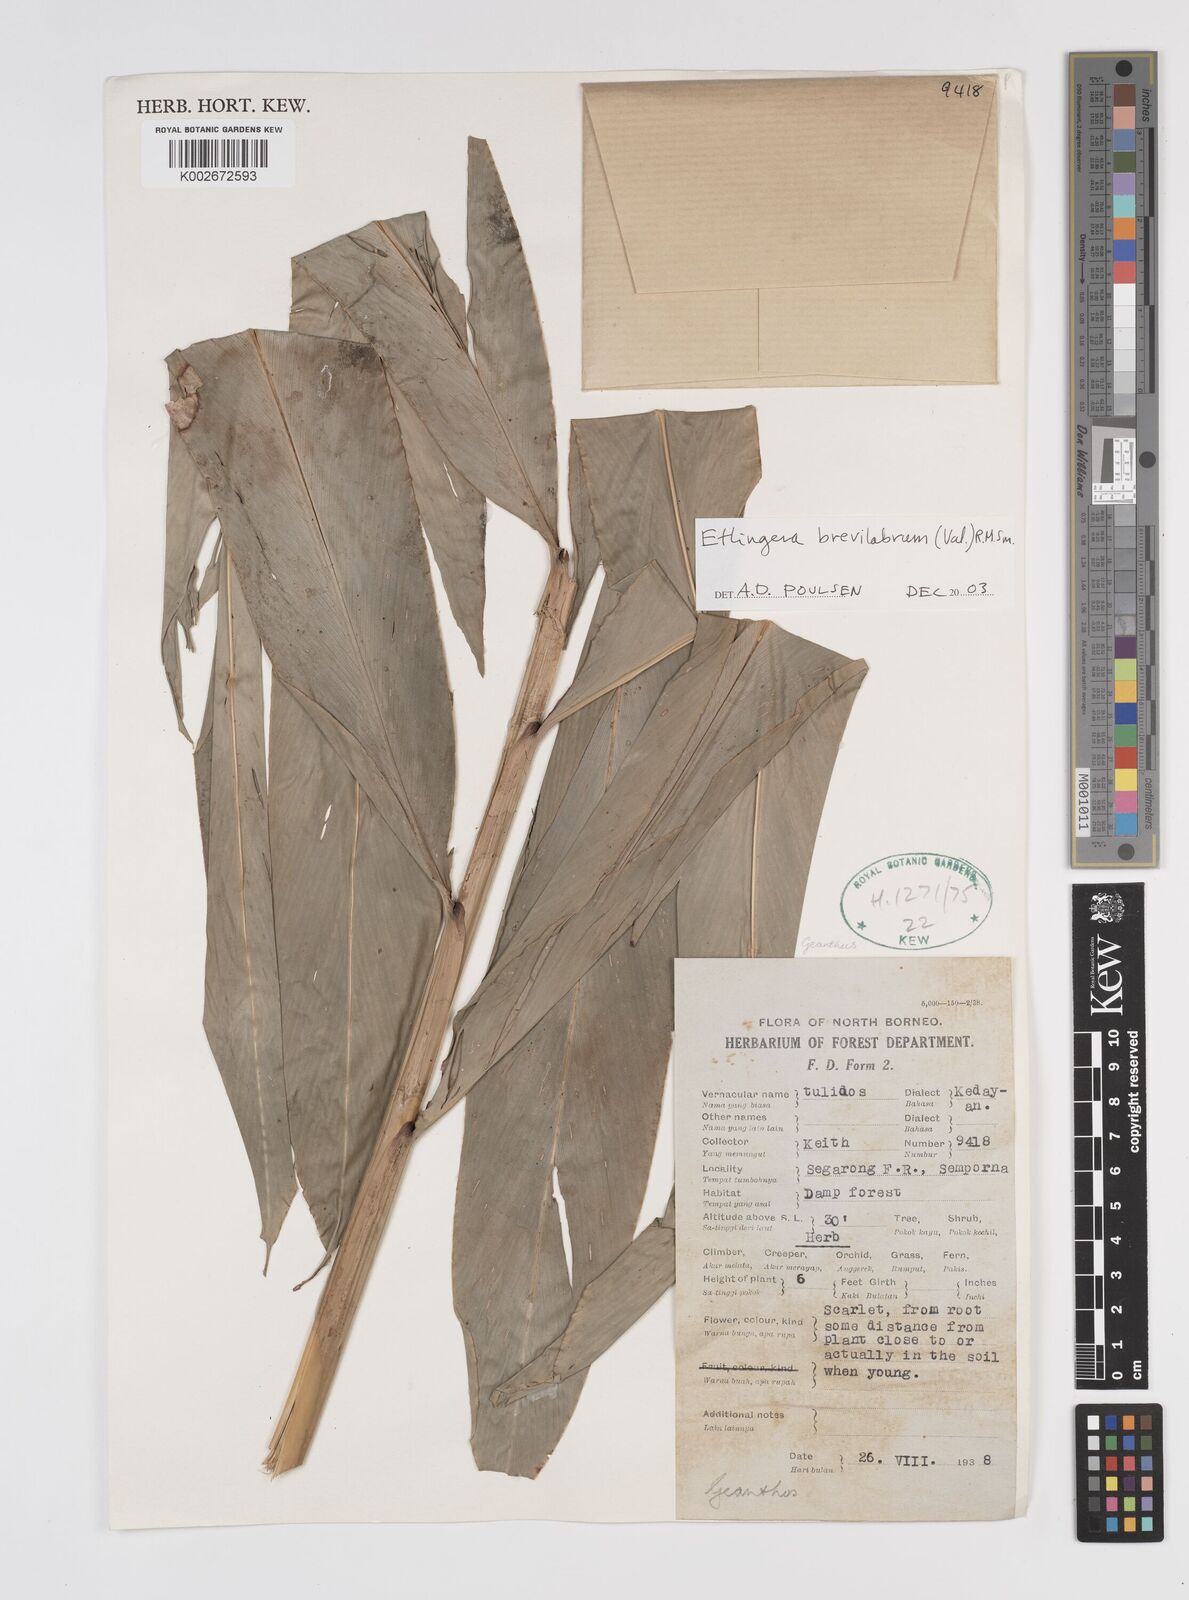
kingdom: Plantae
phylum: Tracheophyta
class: Liliopsida
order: Zingiberales
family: Zingiberaceae
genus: Etlingera
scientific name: Etlingera brevilabrum
